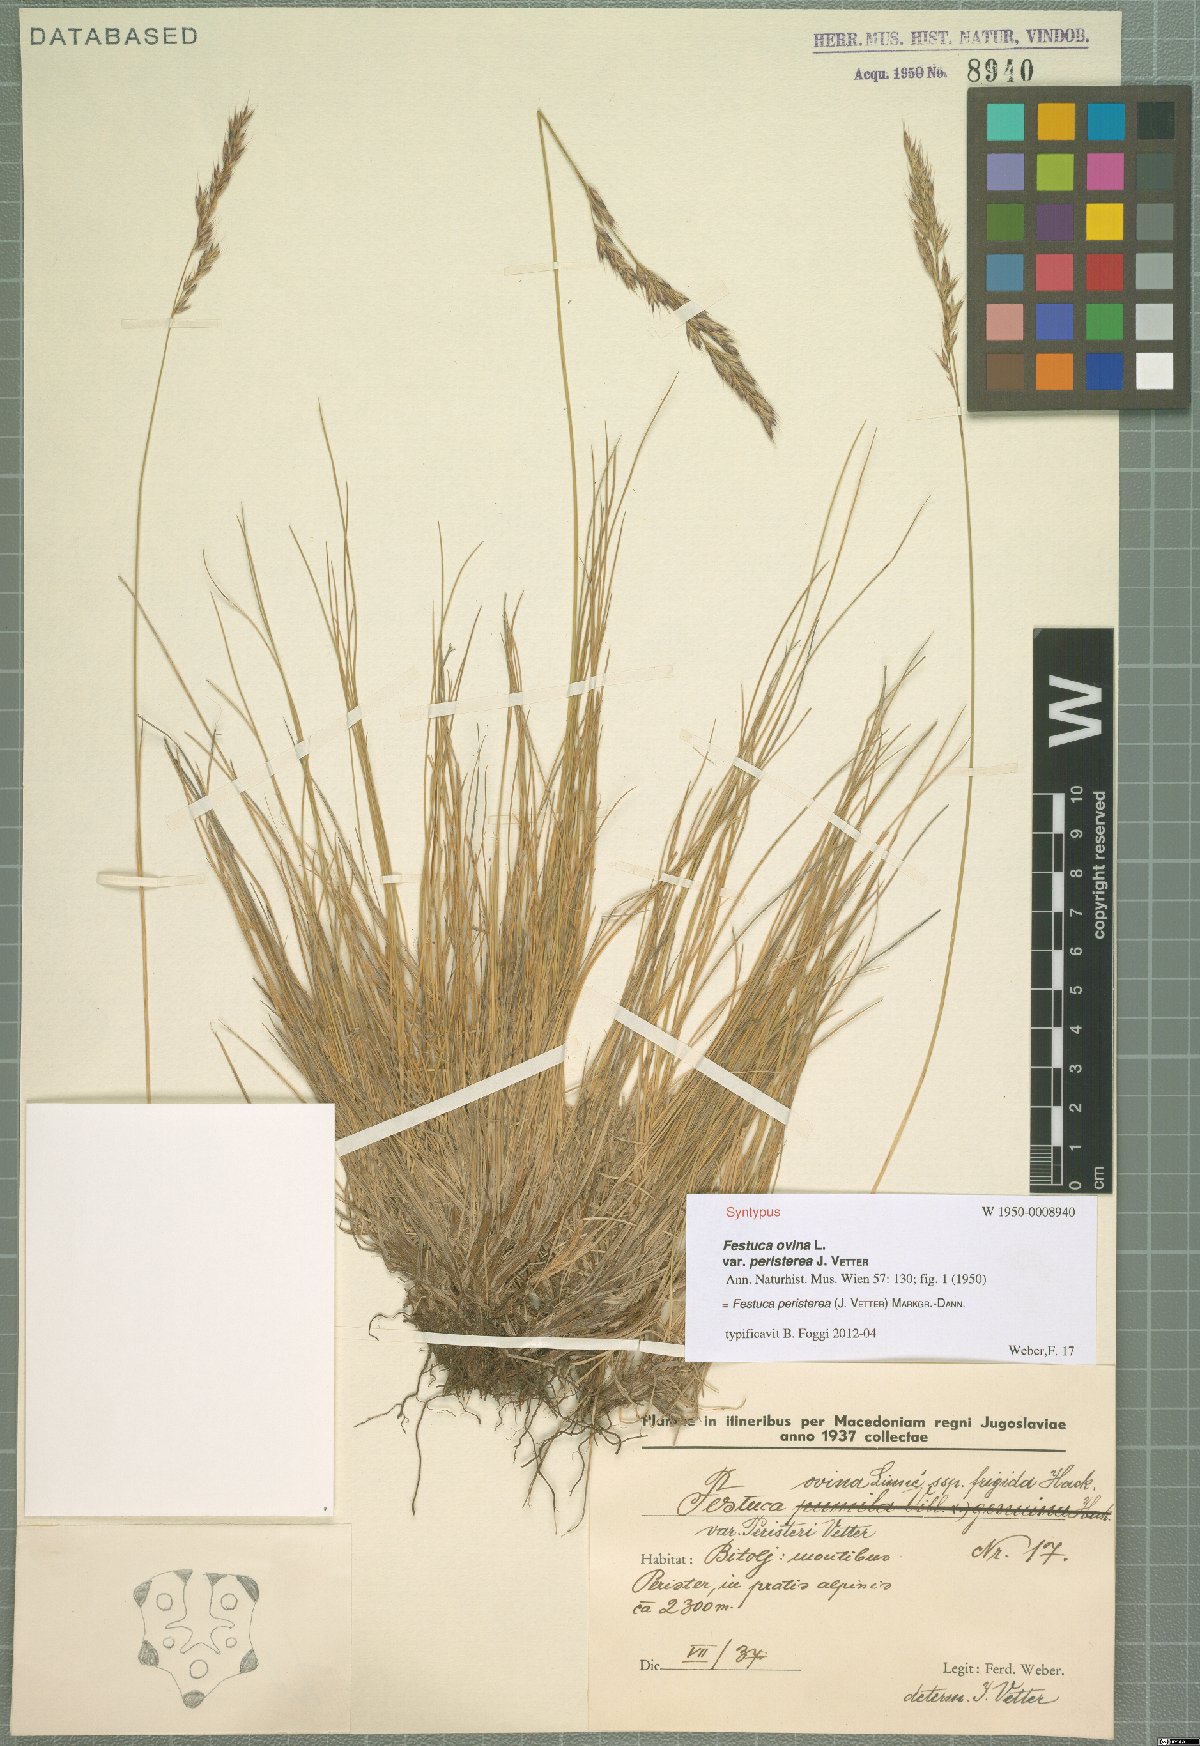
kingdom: Plantae
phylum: Tracheophyta
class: Liliopsida
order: Poales
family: Poaceae
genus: Festuca
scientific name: Festuca peristerea
